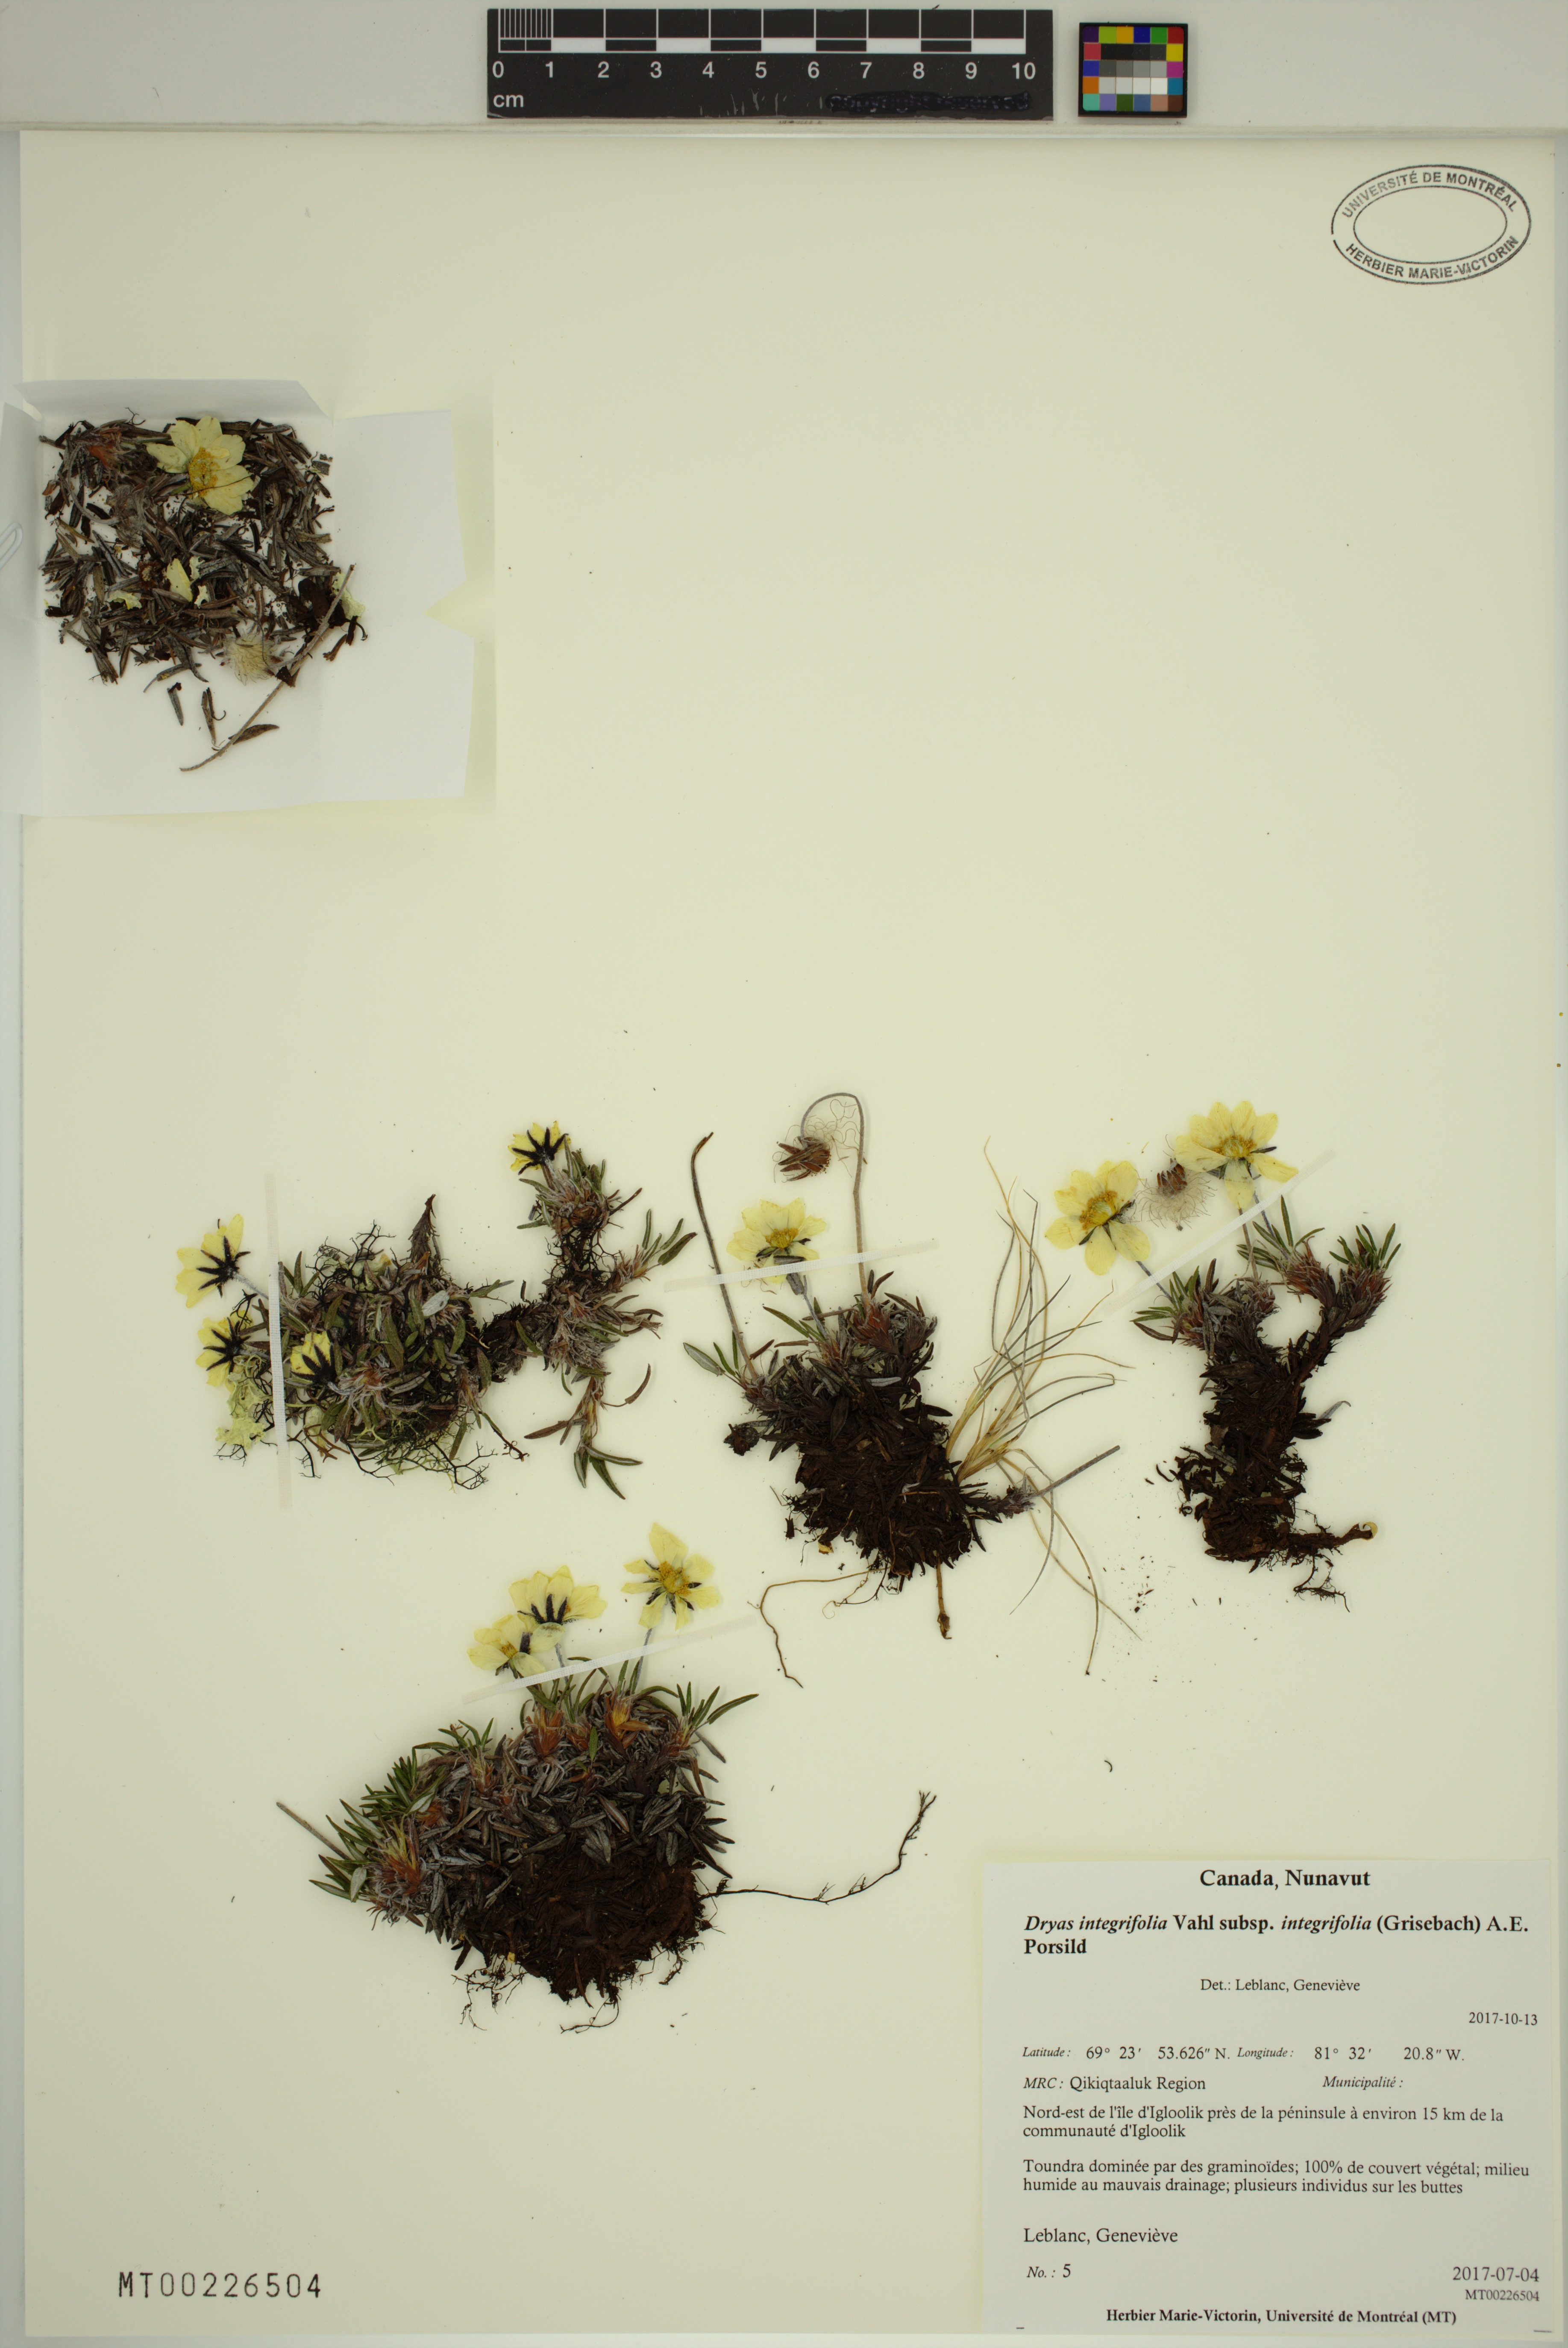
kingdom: Plantae
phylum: Tracheophyta
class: Magnoliopsida
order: Rosales
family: Rosaceae
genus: Dryas
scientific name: Dryas integrifolia
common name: Entire-leaved mountain avens
